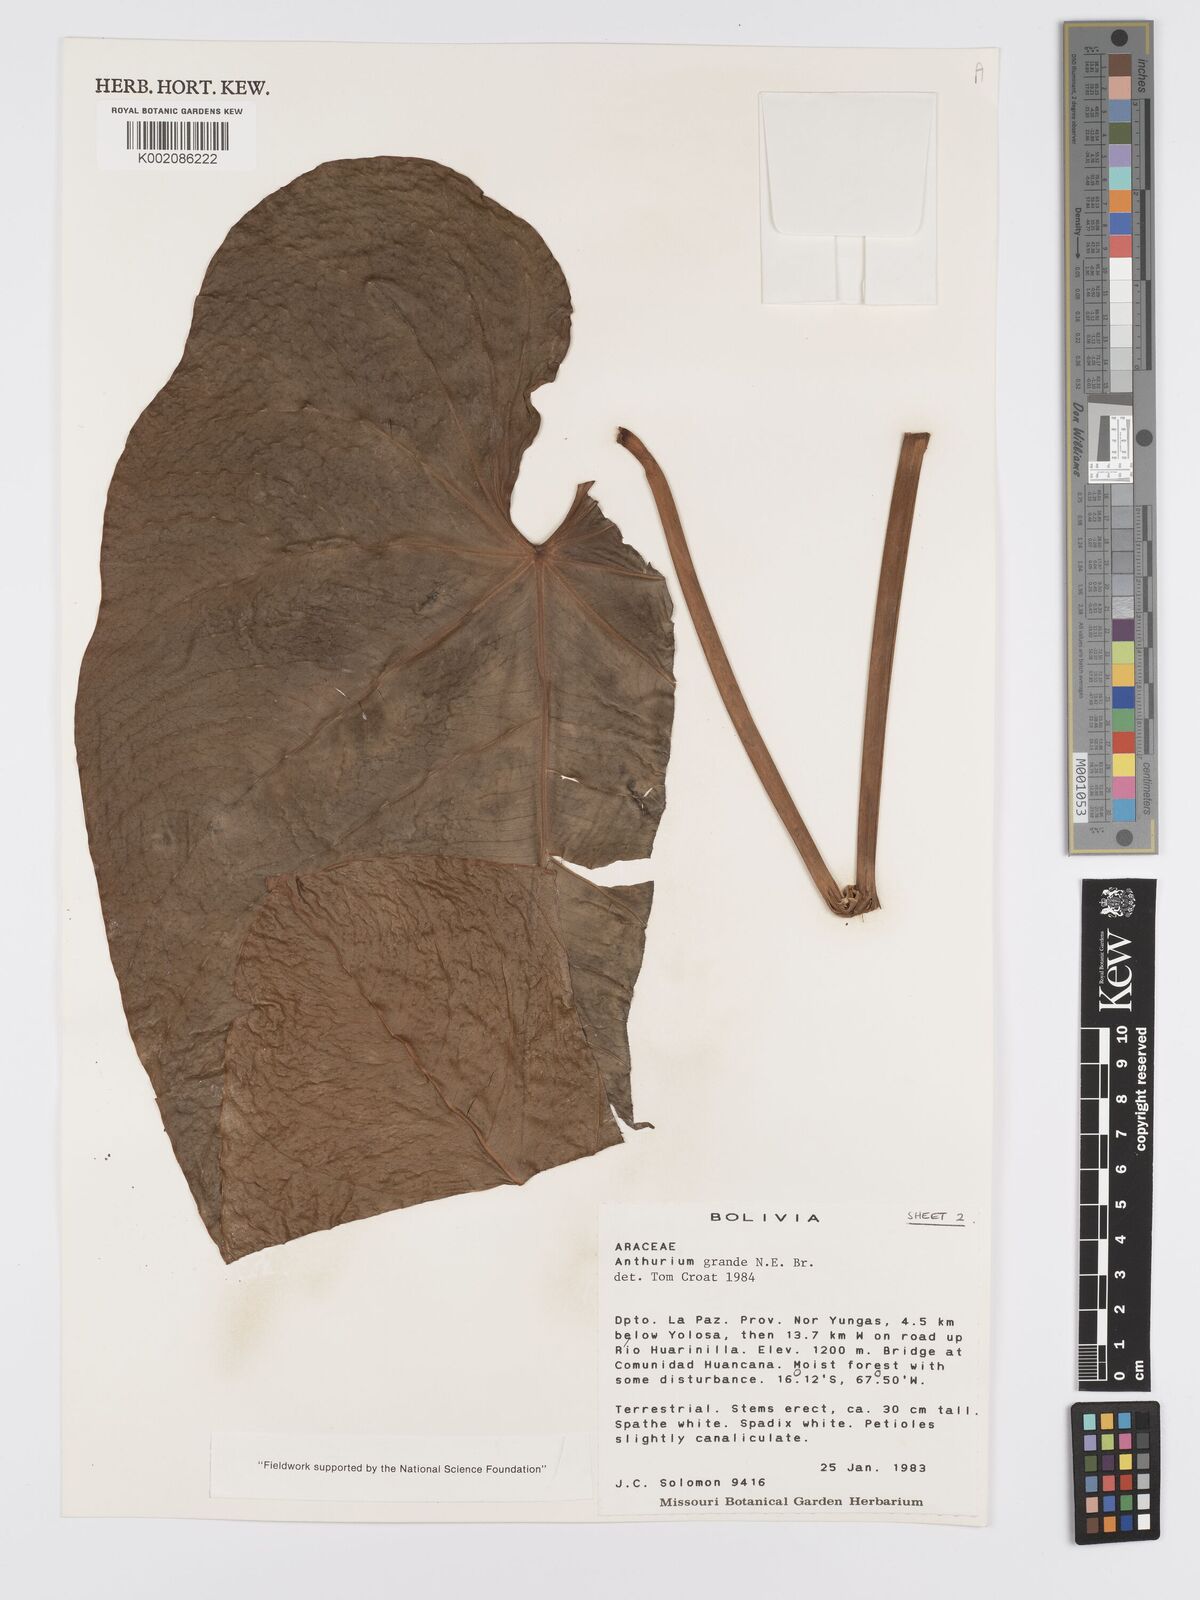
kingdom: Plantae
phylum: Tracheophyta
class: Liliopsida
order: Alismatales
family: Araceae
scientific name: Araceae
